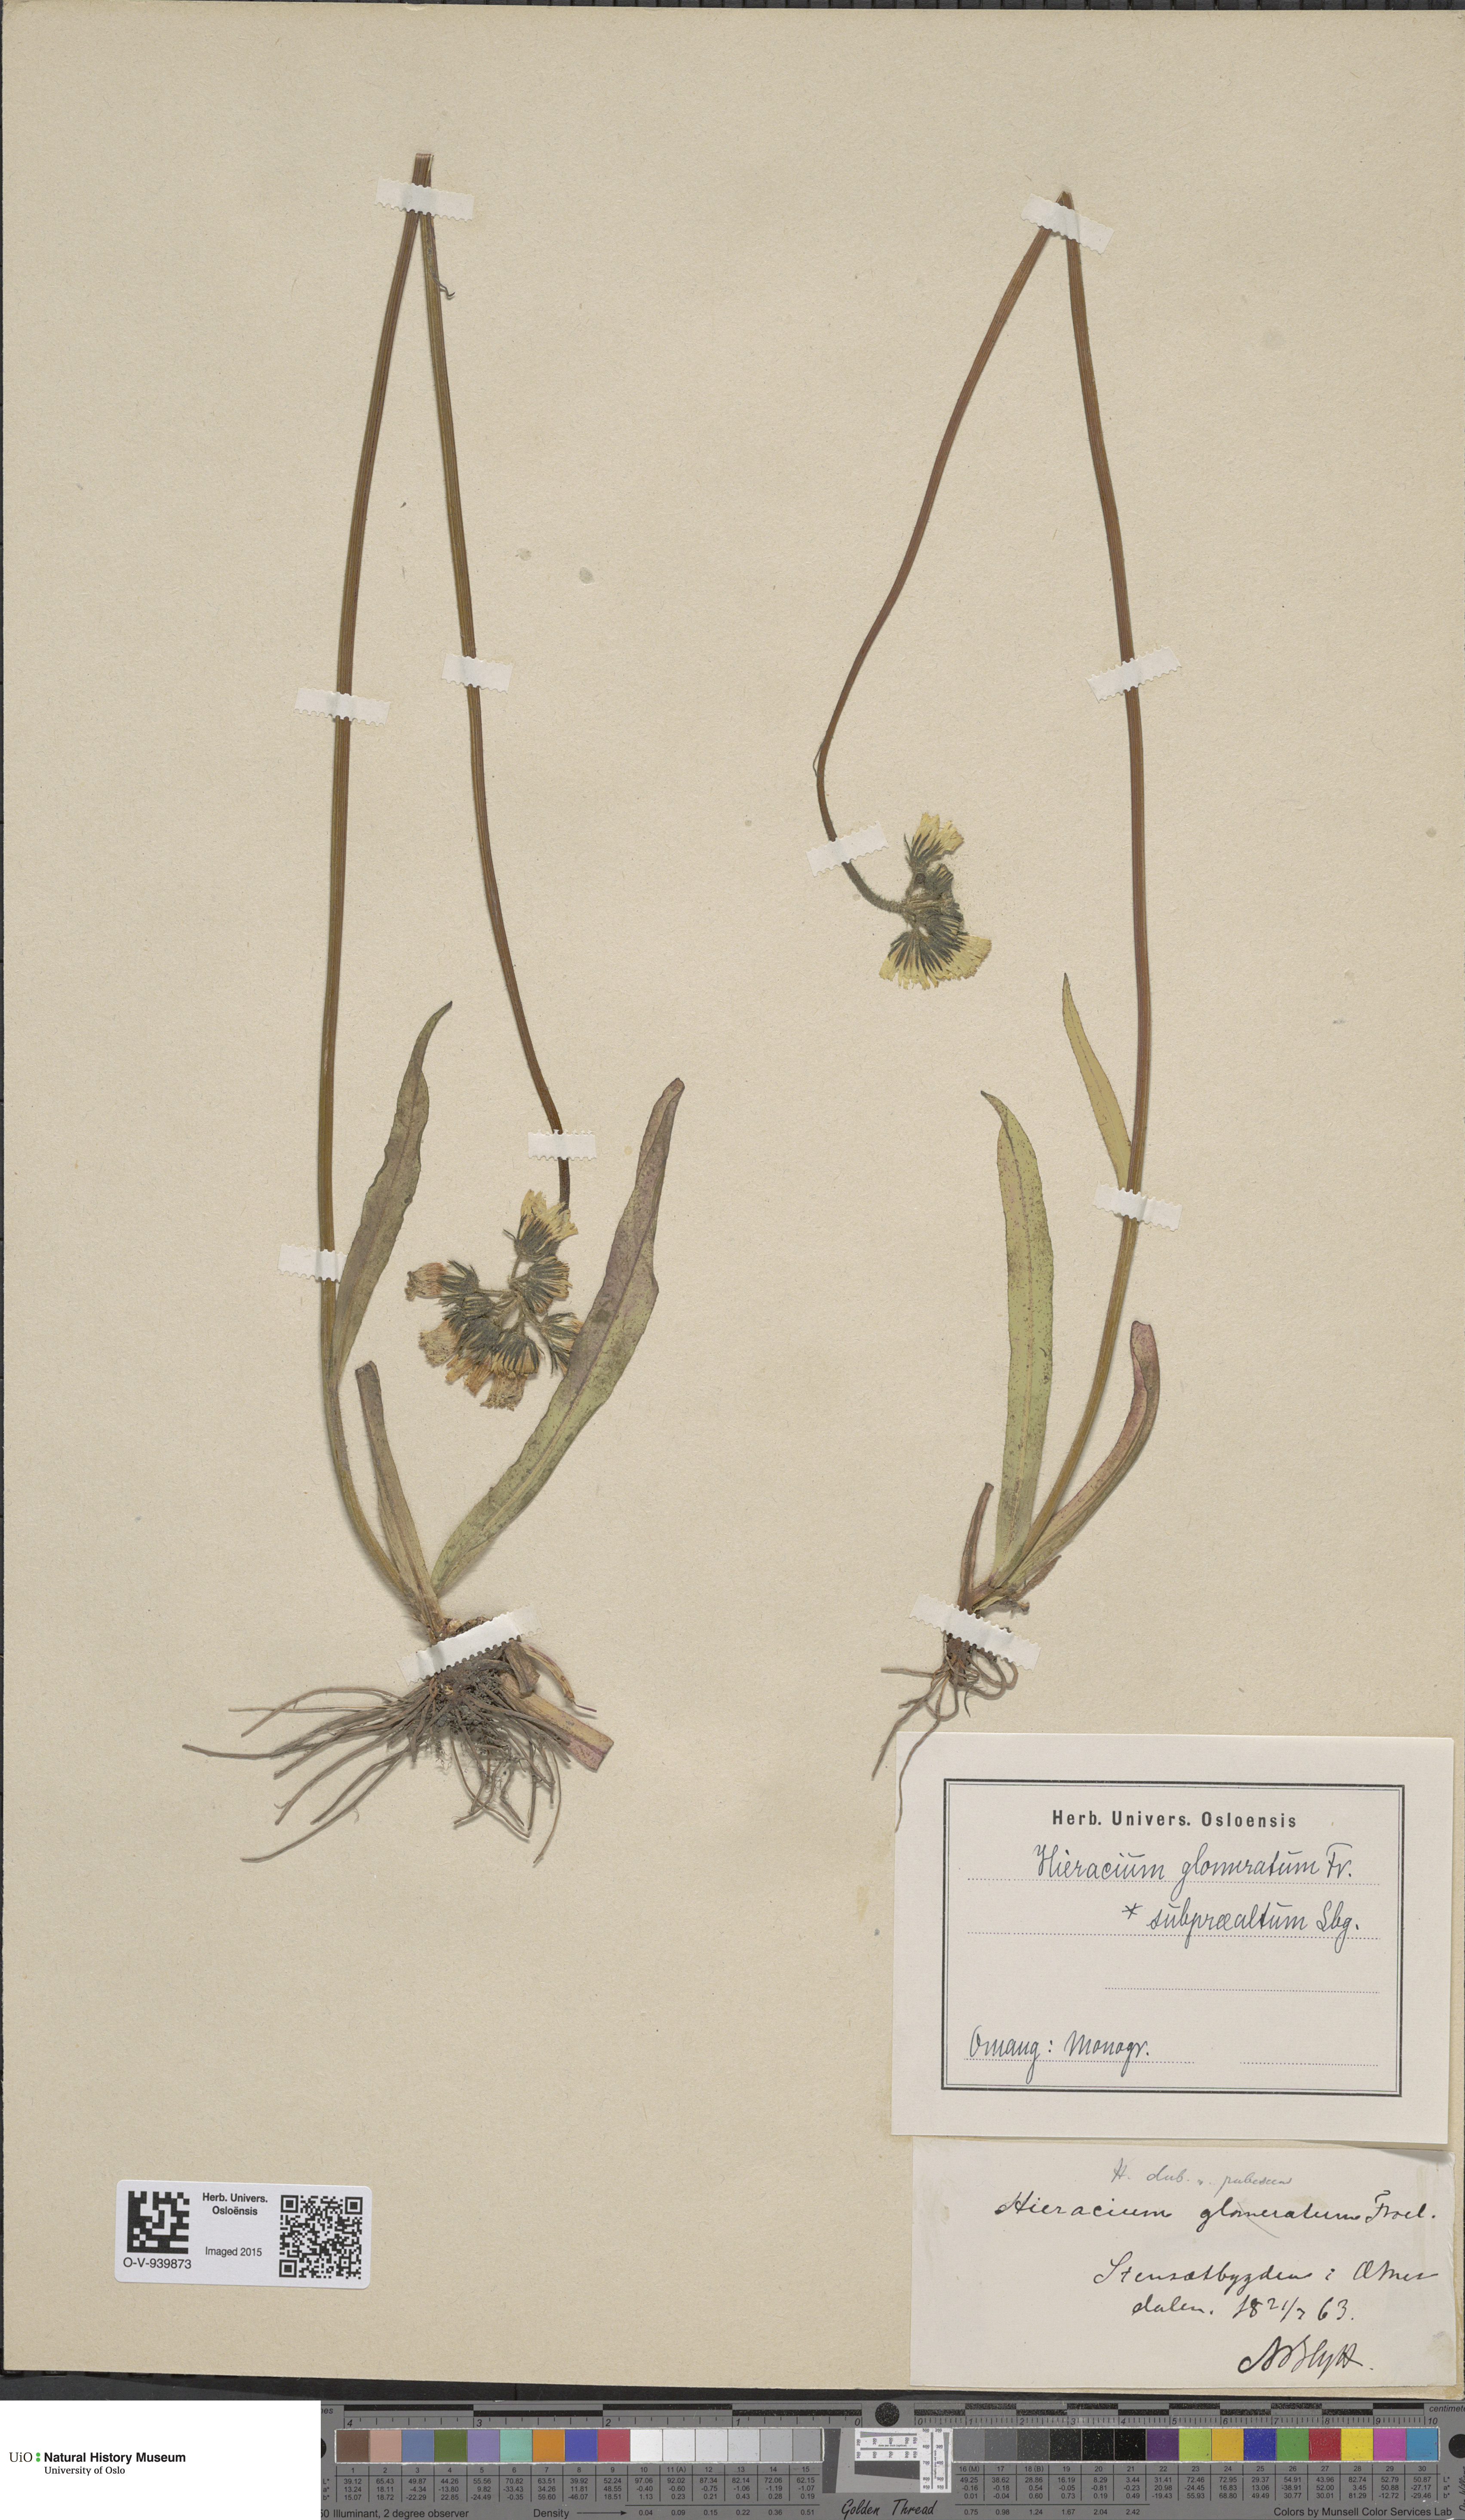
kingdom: Plantae
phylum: Tracheophyta
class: Magnoliopsida
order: Asterales
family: Asteraceae
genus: Pilosella
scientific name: Pilosella glomerata
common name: Queen devil hawkweed
